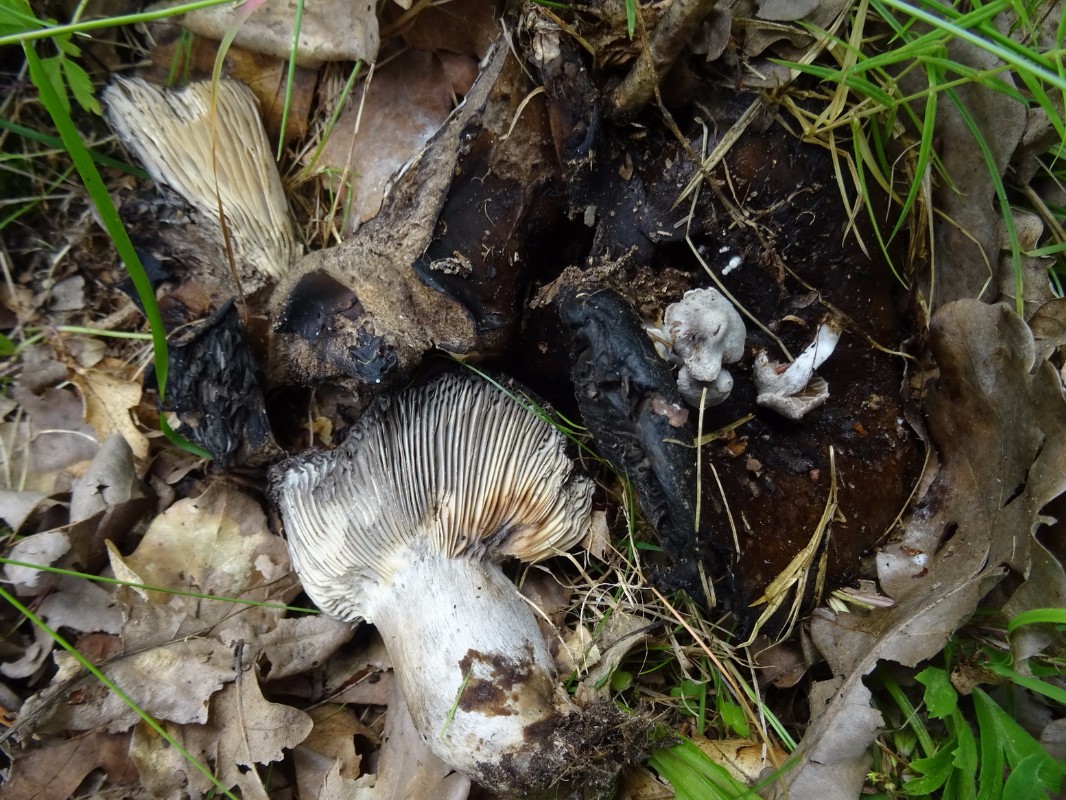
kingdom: Fungi
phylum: Basidiomycota
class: Agaricomycetes
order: Russulales
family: Russulaceae
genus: Russula
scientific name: Russula
